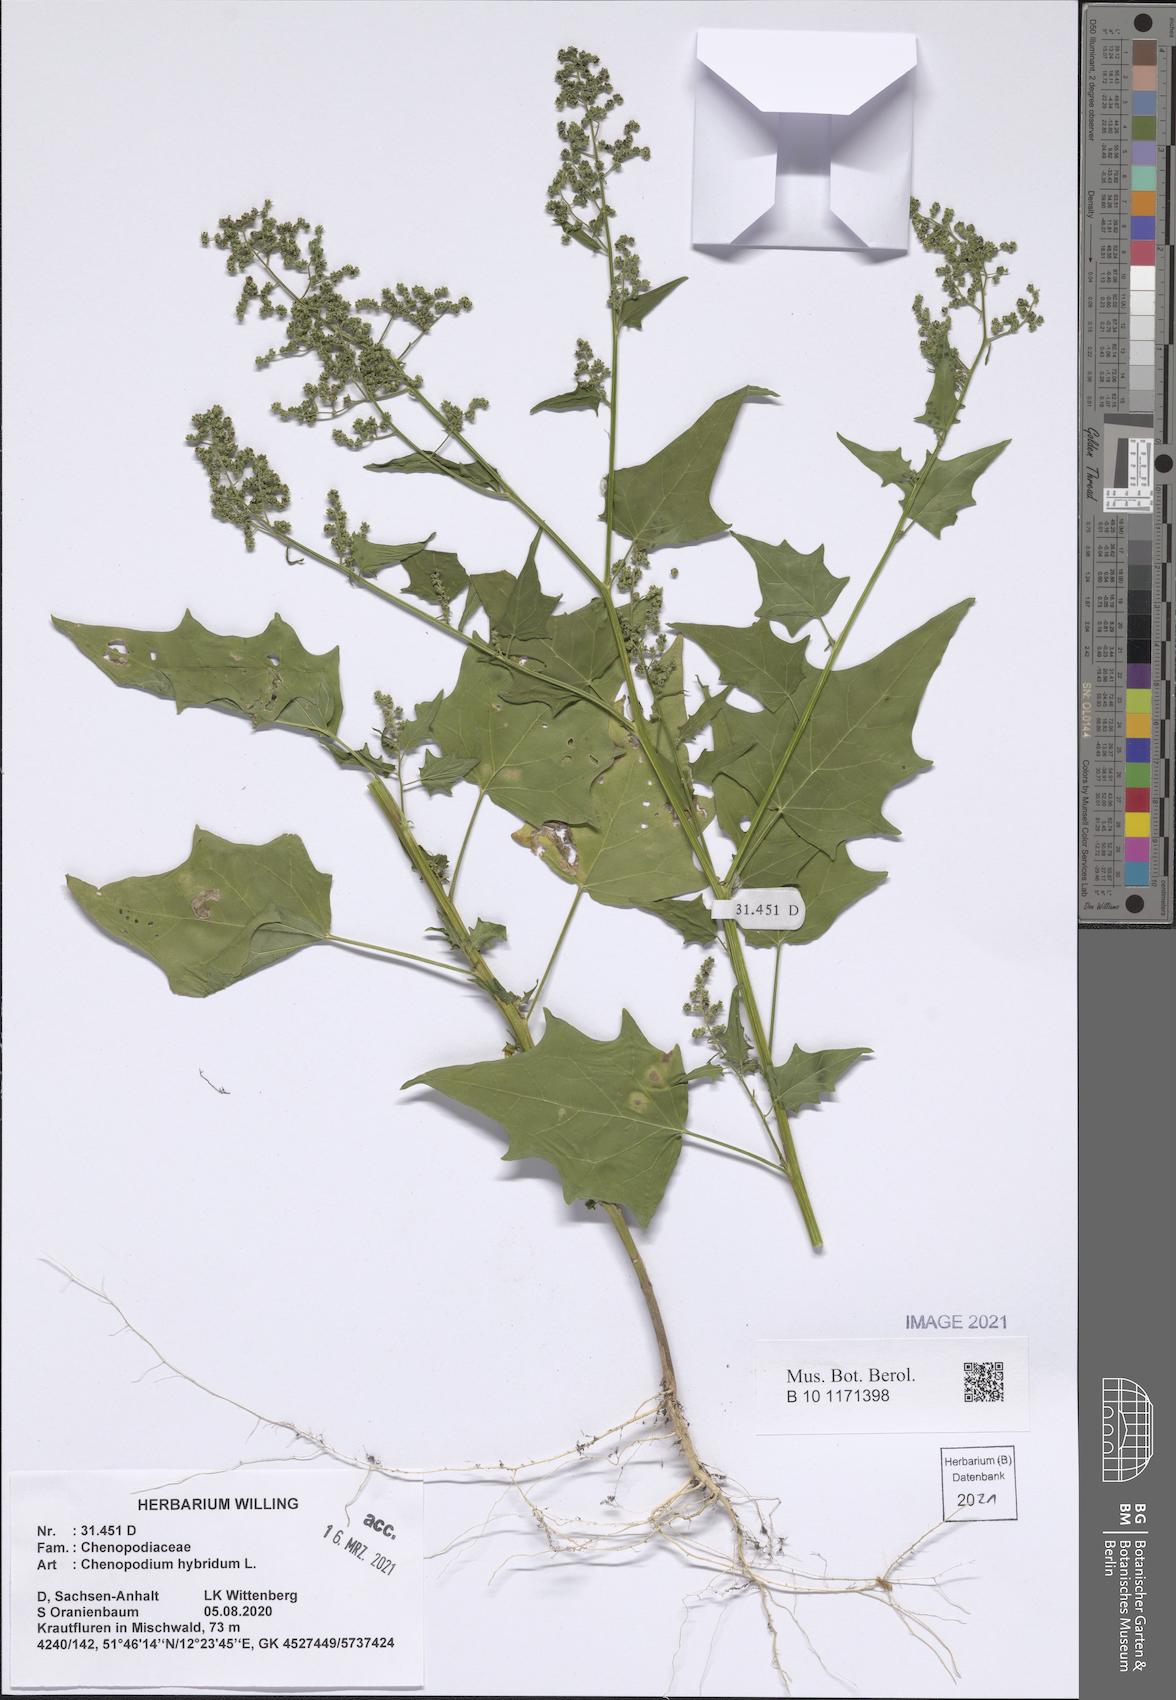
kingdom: Plantae
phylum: Tracheophyta
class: Magnoliopsida
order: Caryophyllales
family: Amaranthaceae
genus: Chenopodiastrum
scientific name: Chenopodiastrum hybridum
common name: Mapleleaf goosefoot
